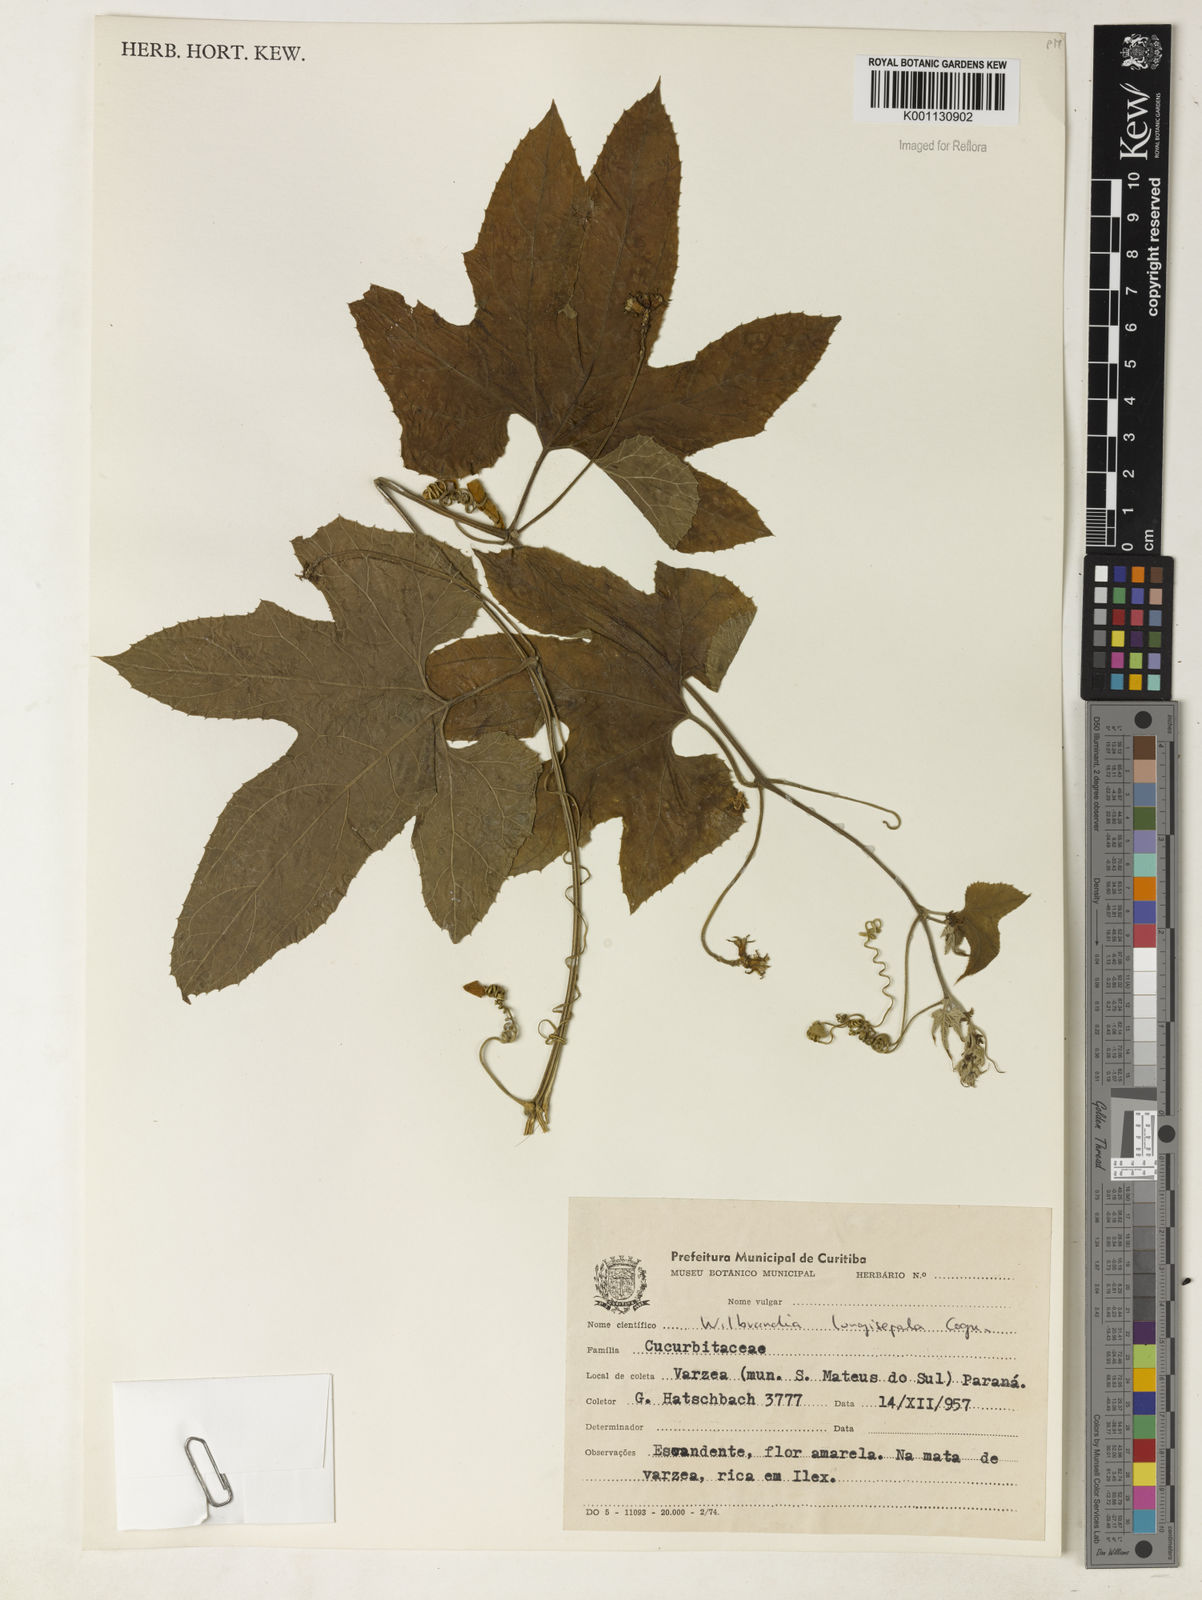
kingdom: Plantae
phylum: Tracheophyta
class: Magnoliopsida
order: Cucurbitales
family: Cucurbitaceae
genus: Wilbrandia
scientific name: Wilbrandia longisepala
